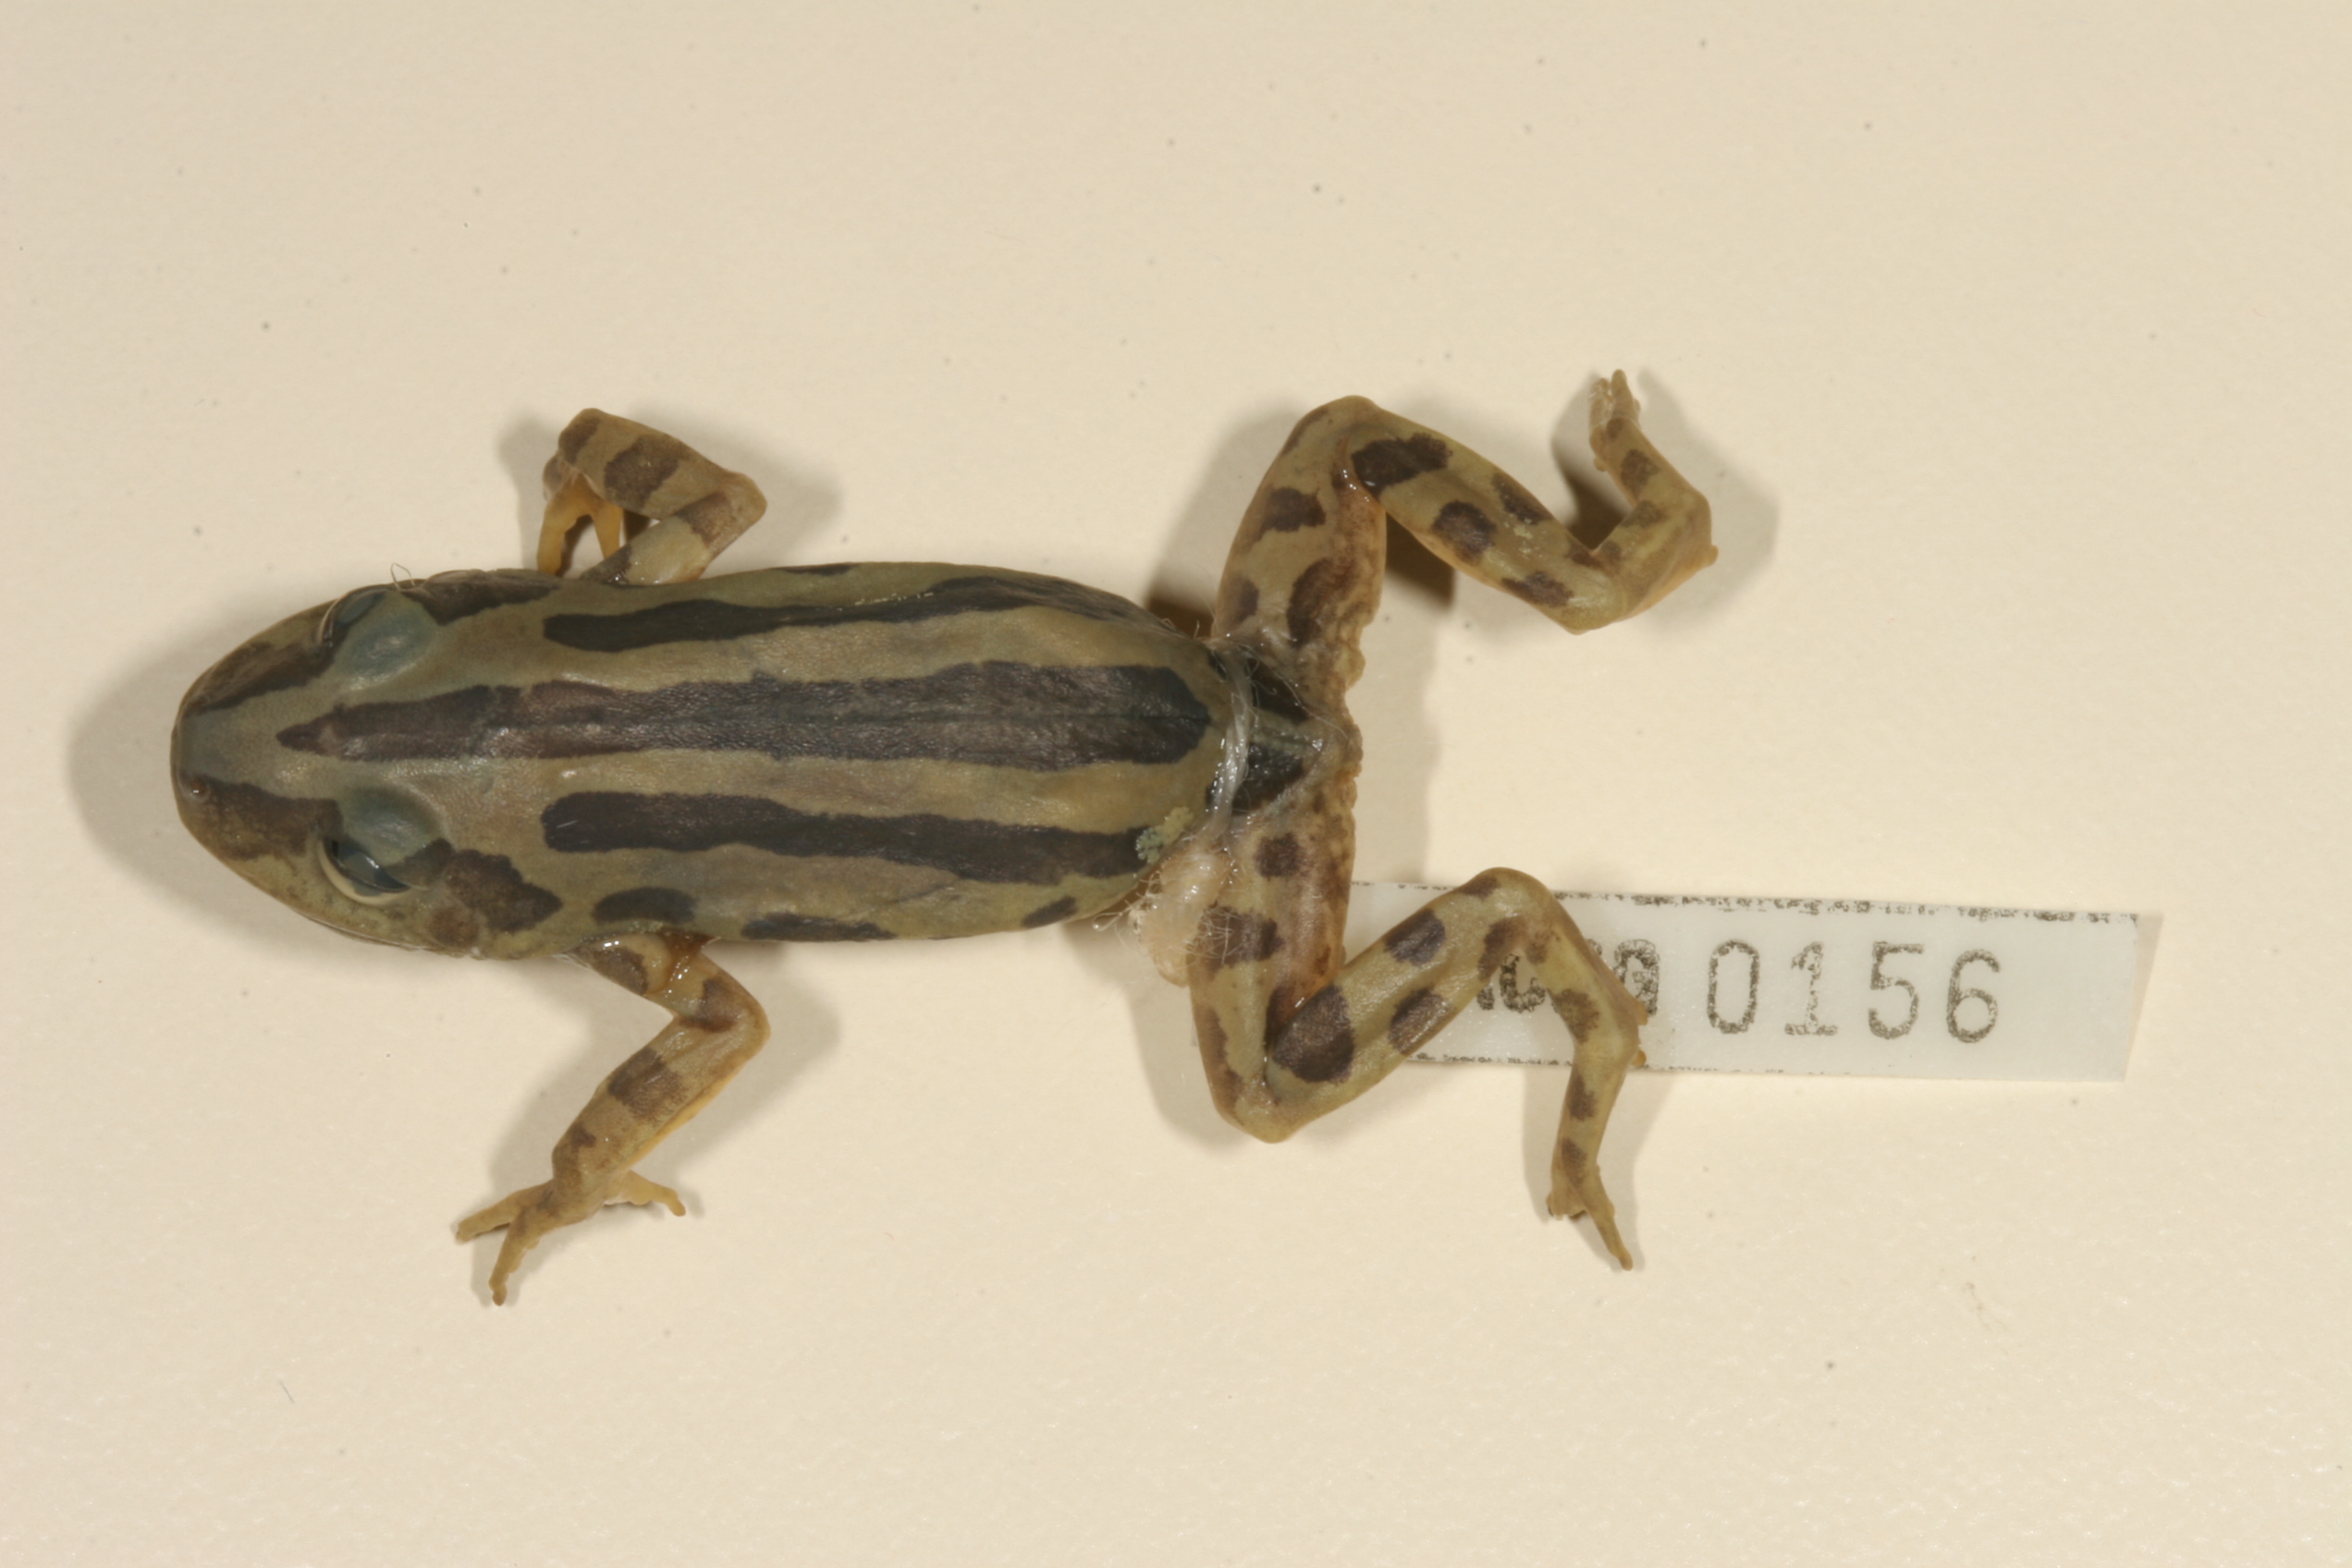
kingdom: Animalia
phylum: Chordata
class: Amphibia
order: Anura
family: Hyperoliidae
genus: Kassina
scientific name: Kassina senegalensis
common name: Senegal land frog
